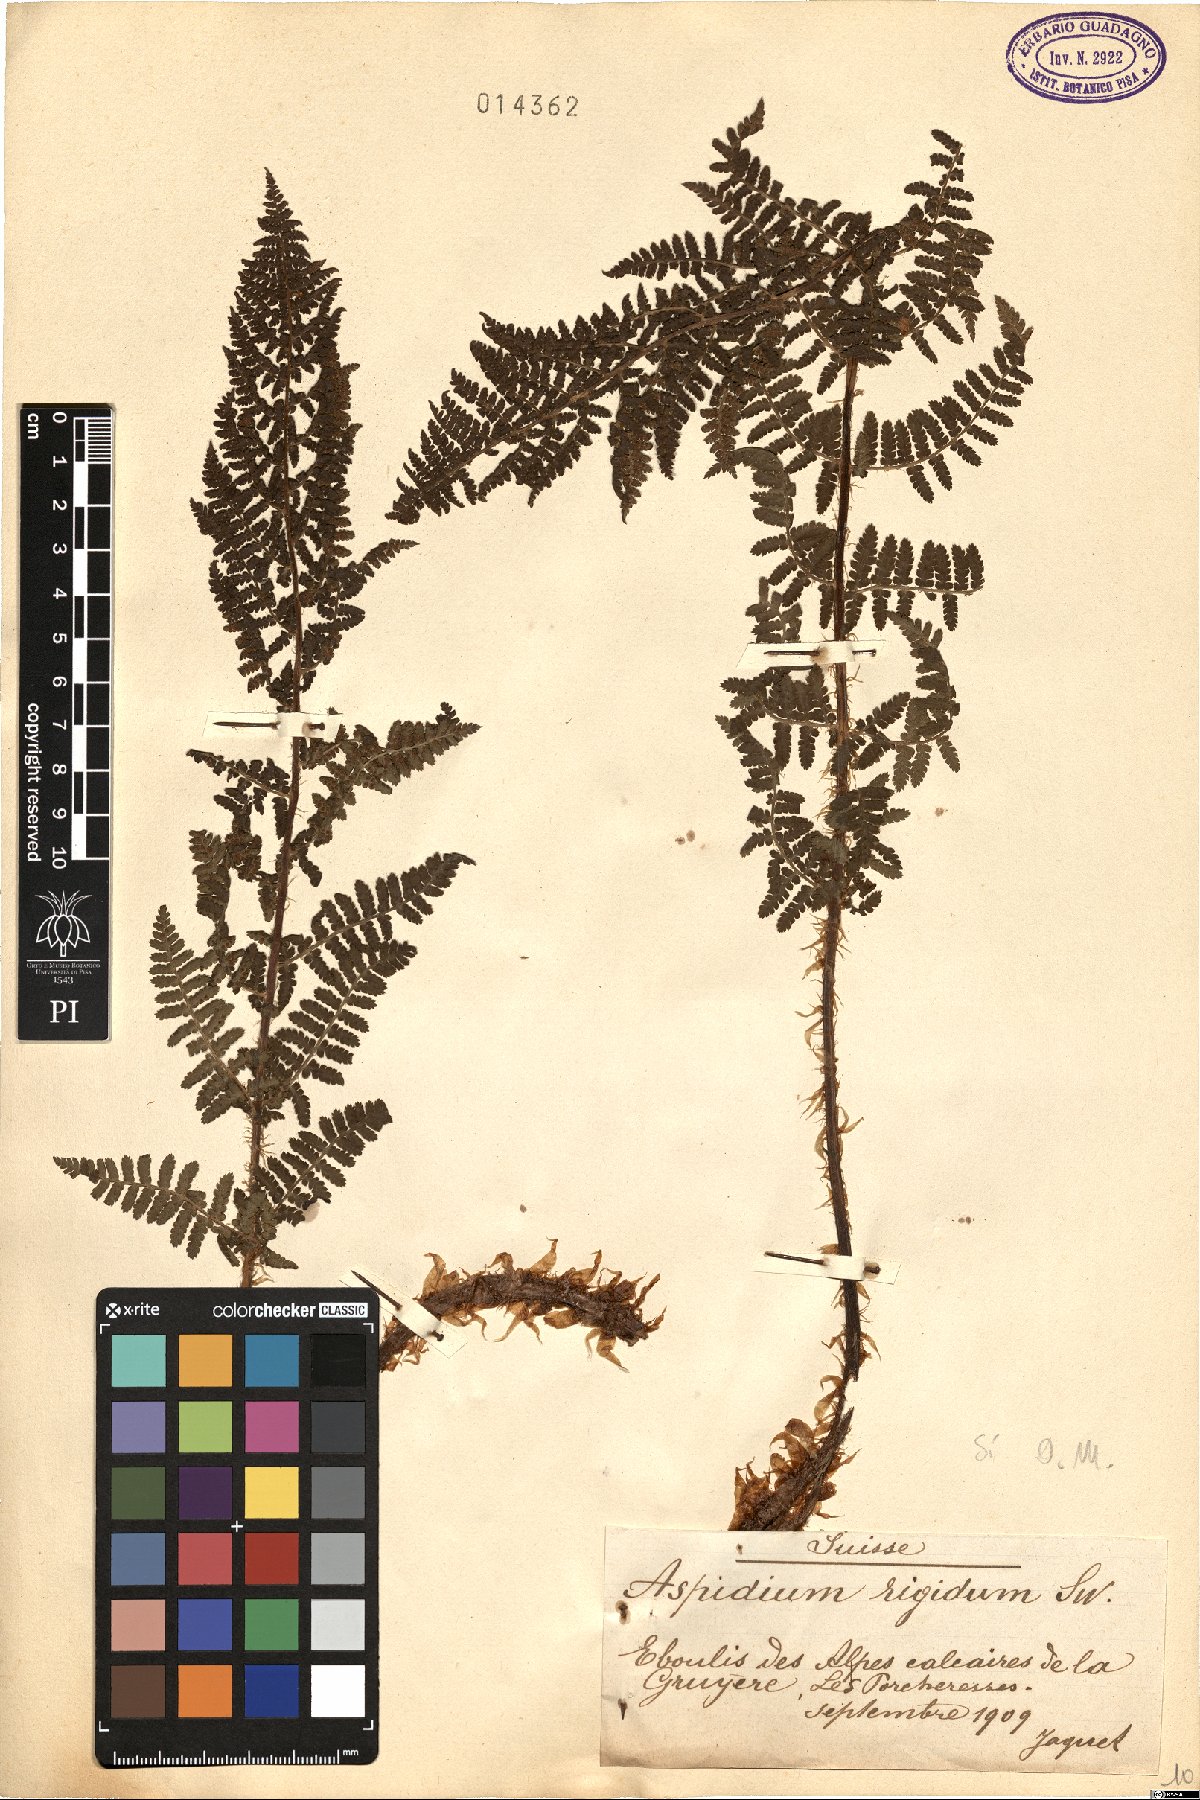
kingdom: Plantae
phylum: Tracheophyta
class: Polypodiopsida
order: Polypodiales
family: Dryopteridaceae
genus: Dryopteris
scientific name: Dryopteris villarii
